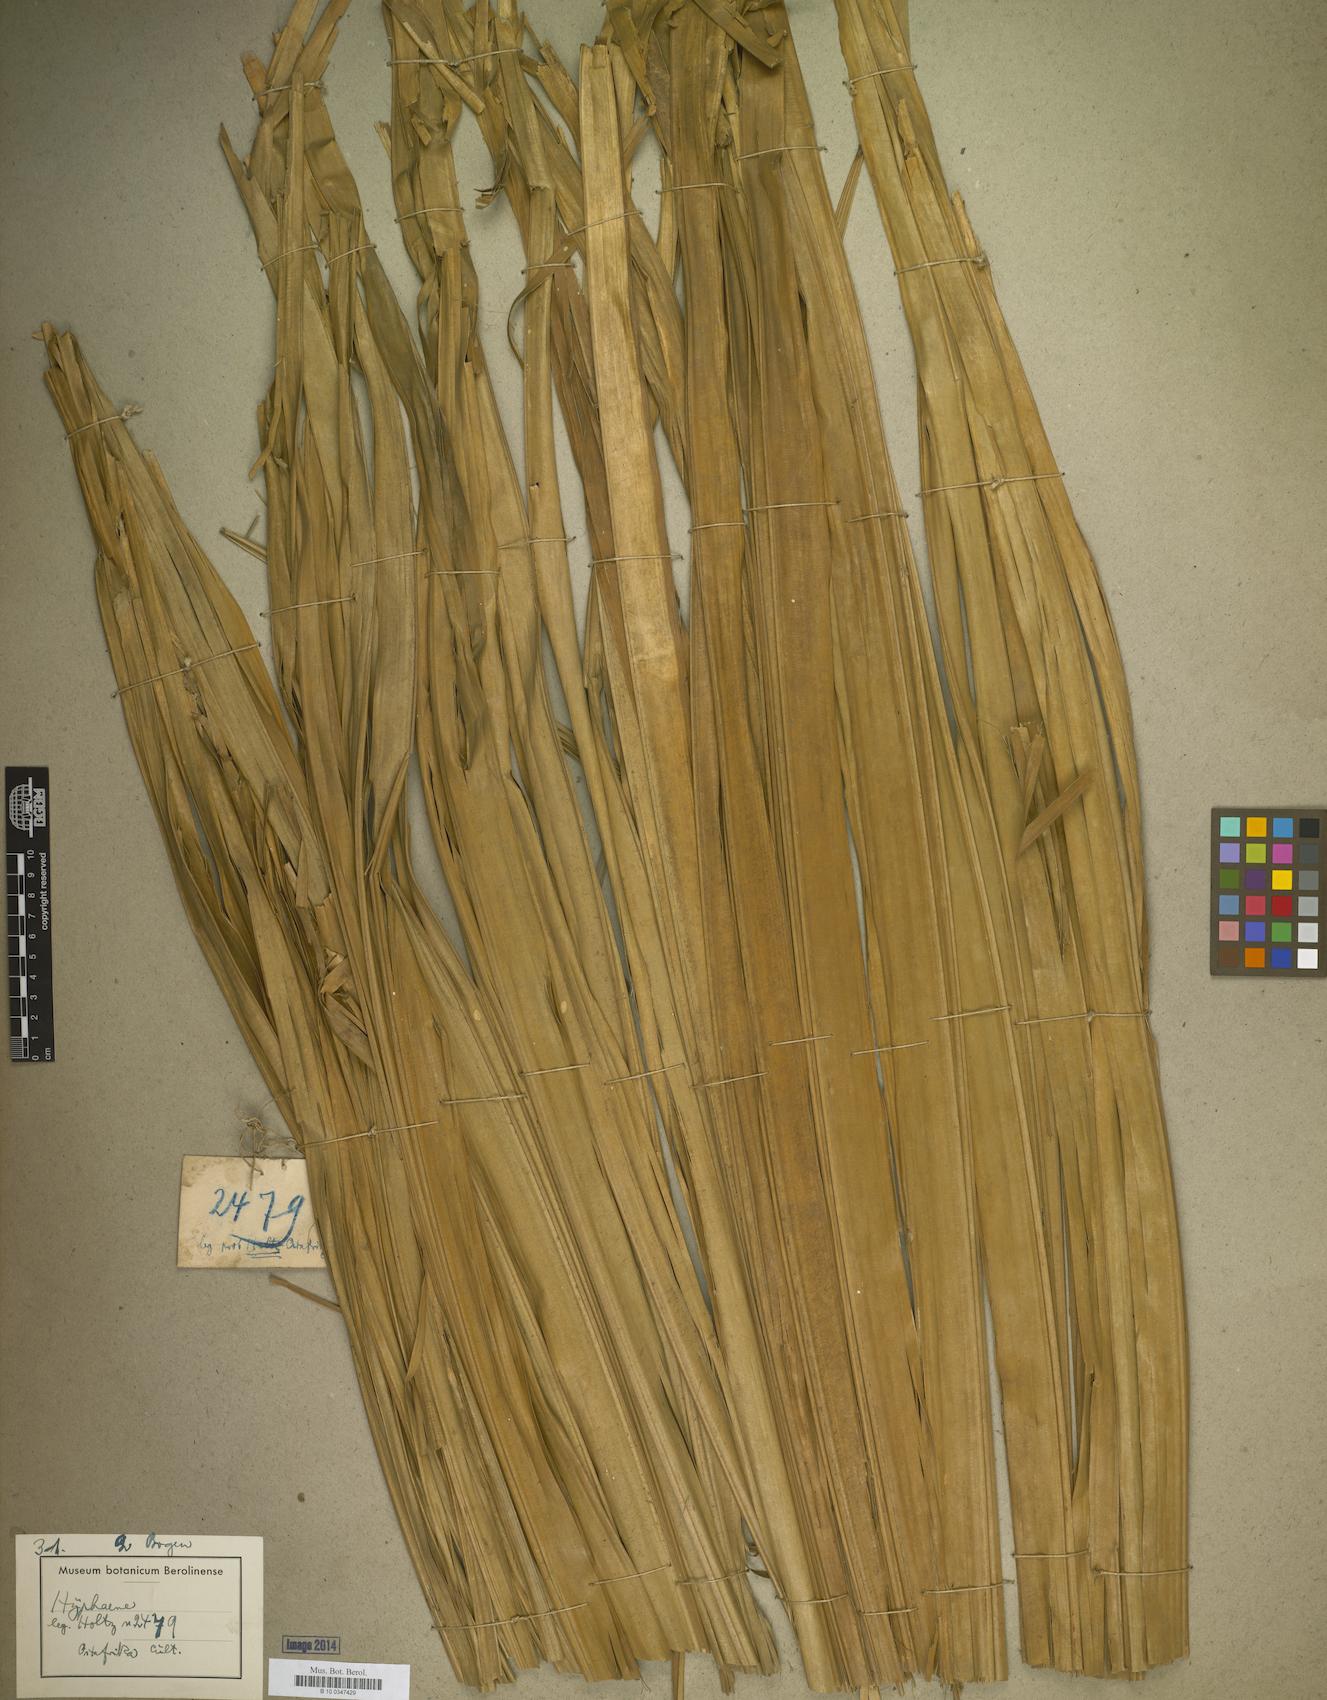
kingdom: Plantae
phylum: Tracheophyta
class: Liliopsida
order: Arecales
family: Arecaceae
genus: Hyphaene
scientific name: Hyphaene
